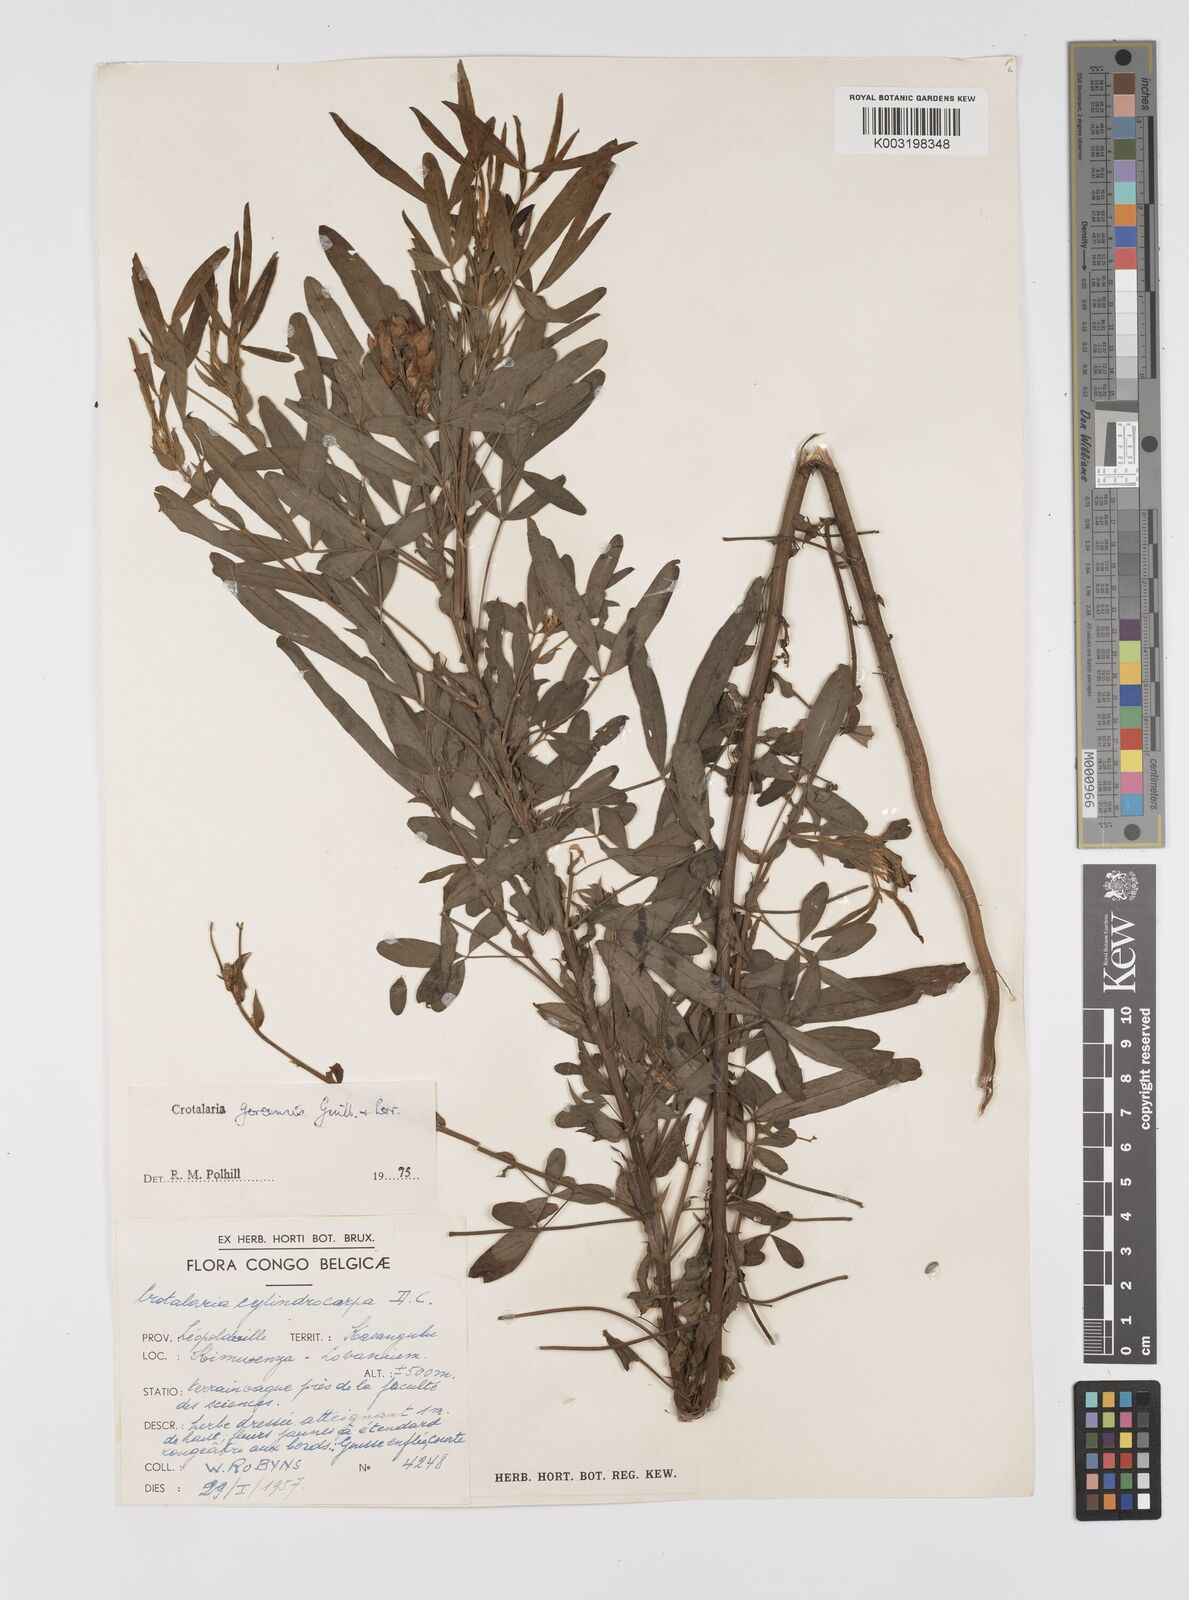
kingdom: Plantae
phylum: Tracheophyta
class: Magnoliopsida
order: Fabales
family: Fabaceae
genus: Crotalaria
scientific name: Crotalaria goreensis
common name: Gambia-pea
